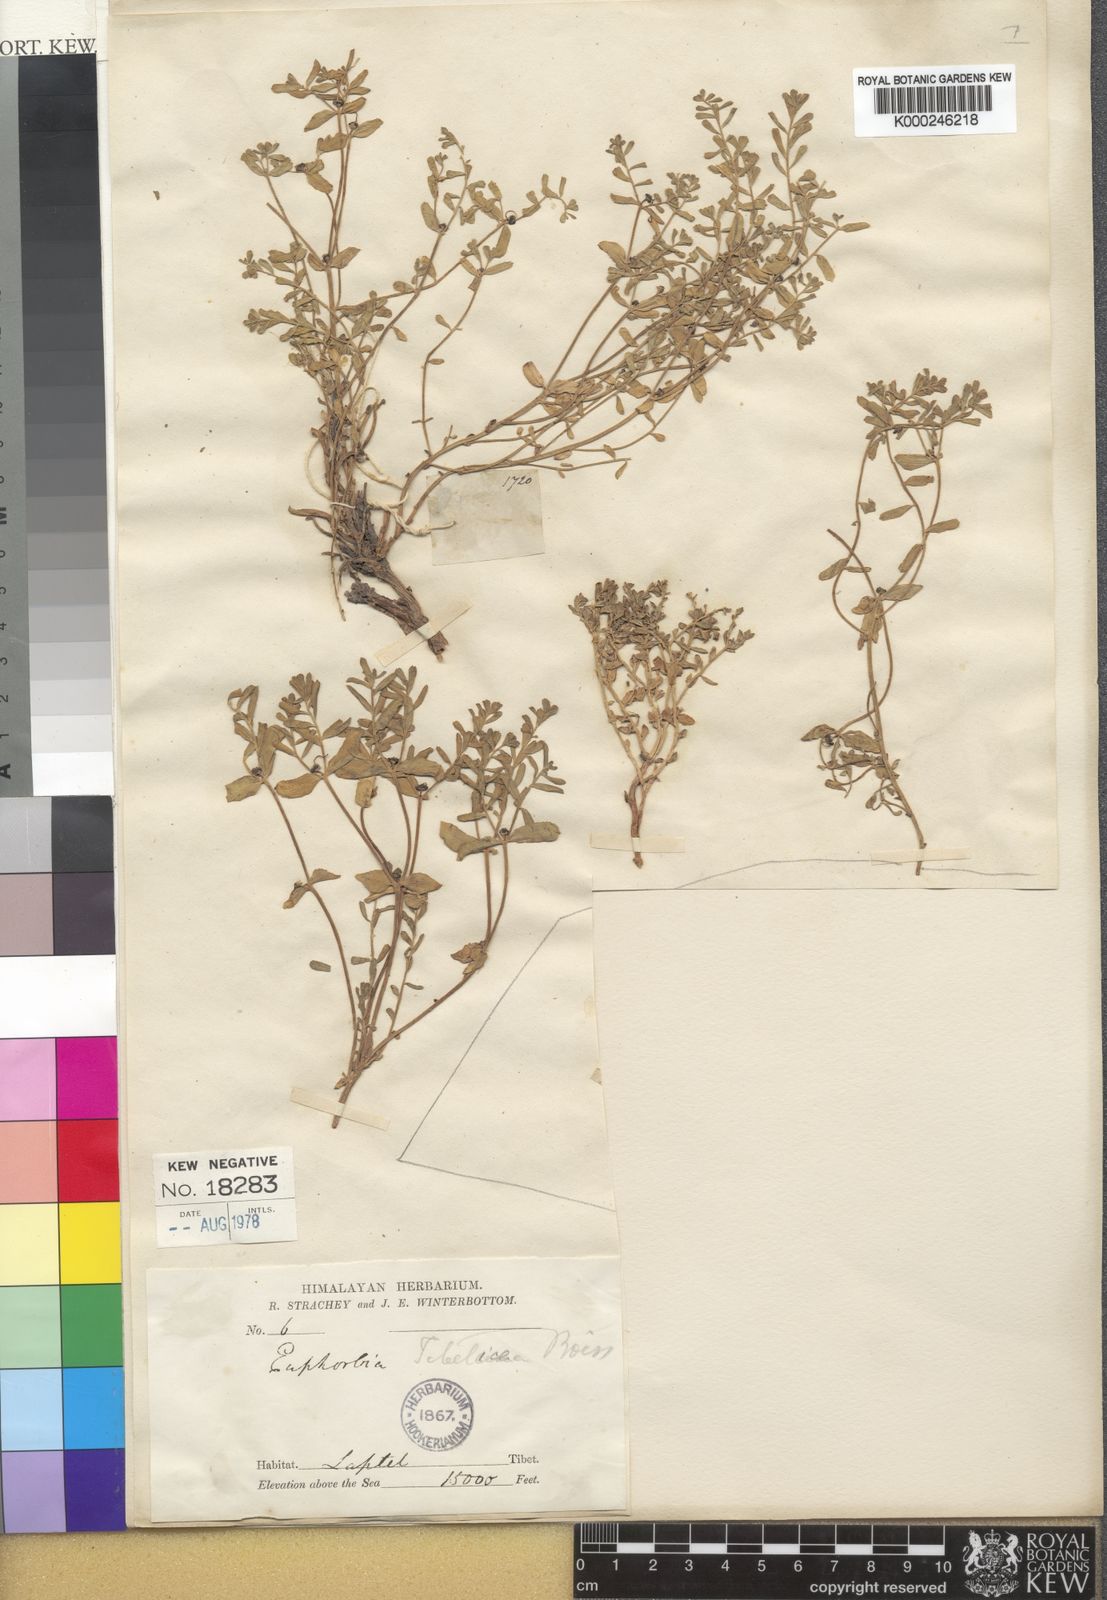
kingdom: Plantae
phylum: Tracheophyta
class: Magnoliopsida
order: Malpighiales
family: Euphorbiaceae
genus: Euphorbia
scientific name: Euphorbia tibetica
